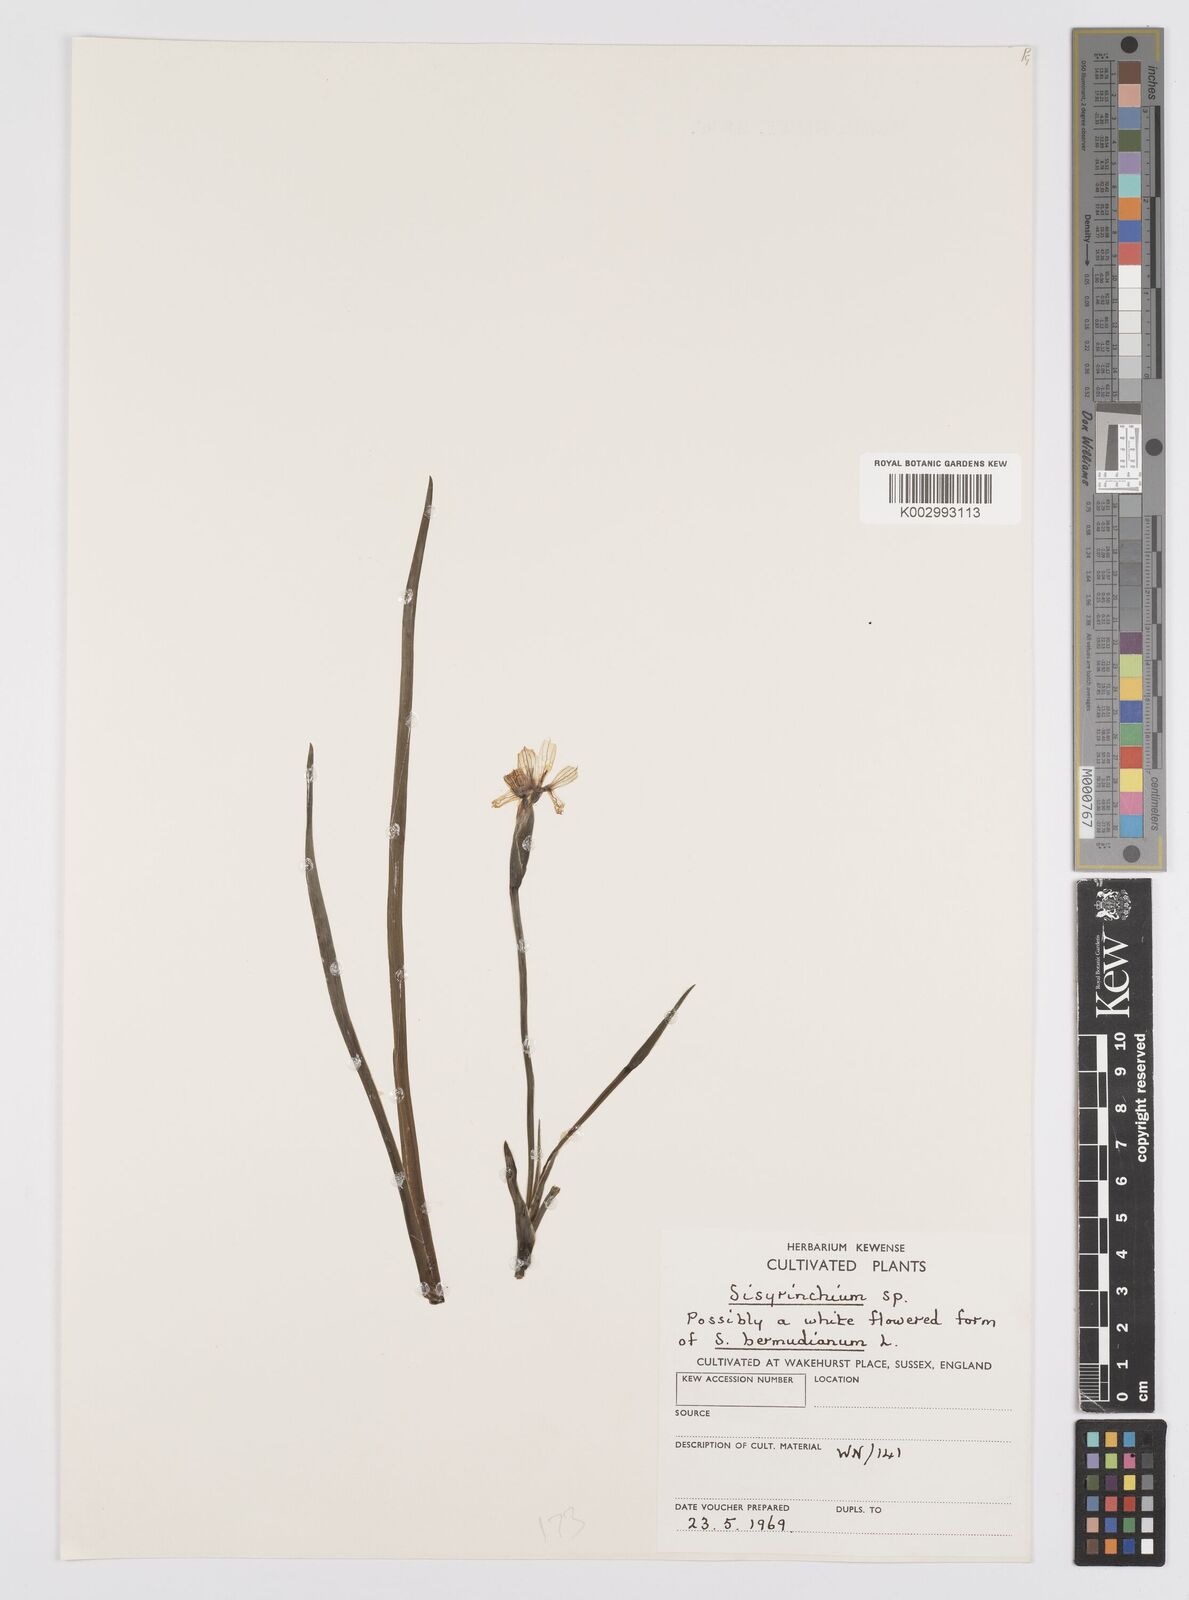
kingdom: Plantae
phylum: Tracheophyta
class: Liliopsida
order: Asparagales
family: Iridaceae
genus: Sisyrinchium
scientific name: Sisyrinchium
